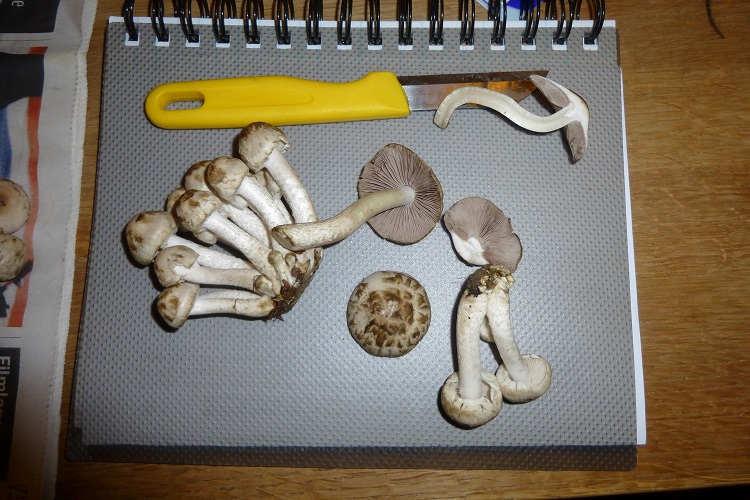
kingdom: Fungi
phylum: Basidiomycota
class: Agaricomycetes
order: Agaricales
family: Psathyrellaceae
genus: Psathyrella
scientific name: Psathyrella cotonea
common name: skællet mørkhat
